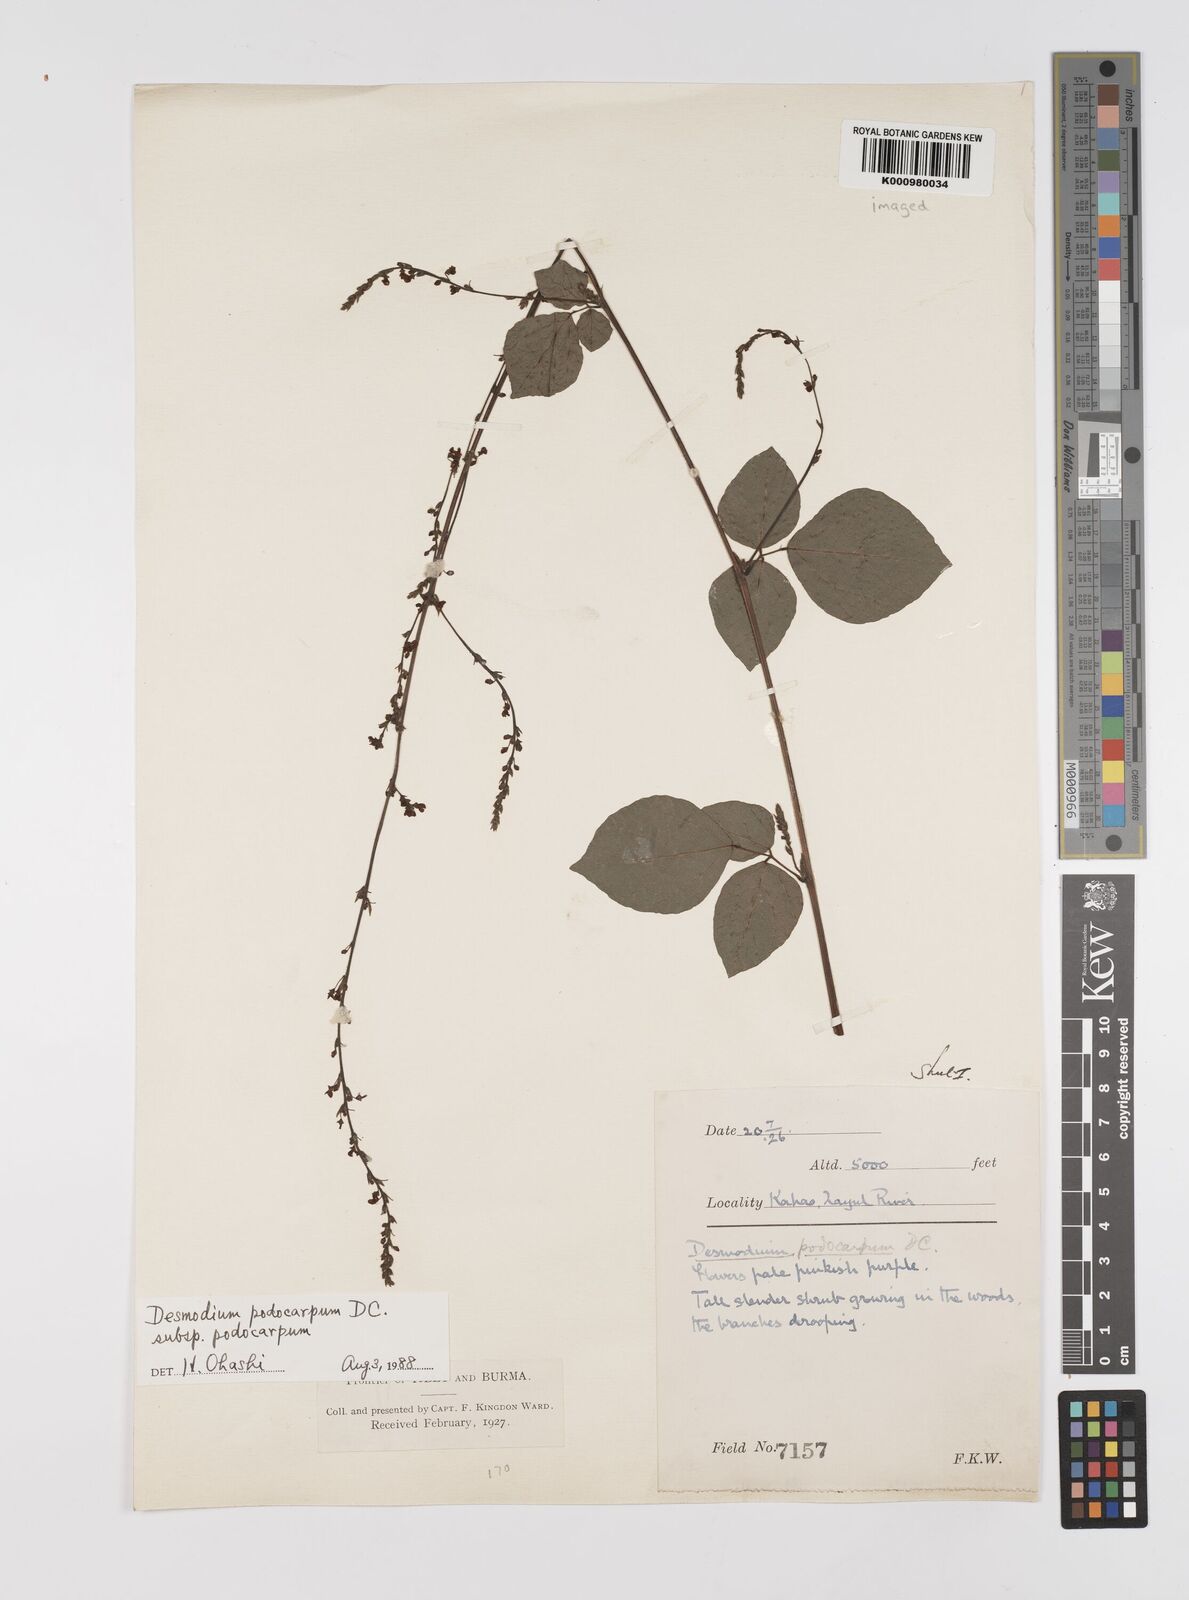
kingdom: Plantae
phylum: Tracheophyta
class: Magnoliopsida
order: Fabales
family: Fabaceae
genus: Desmodium
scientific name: Desmodium
